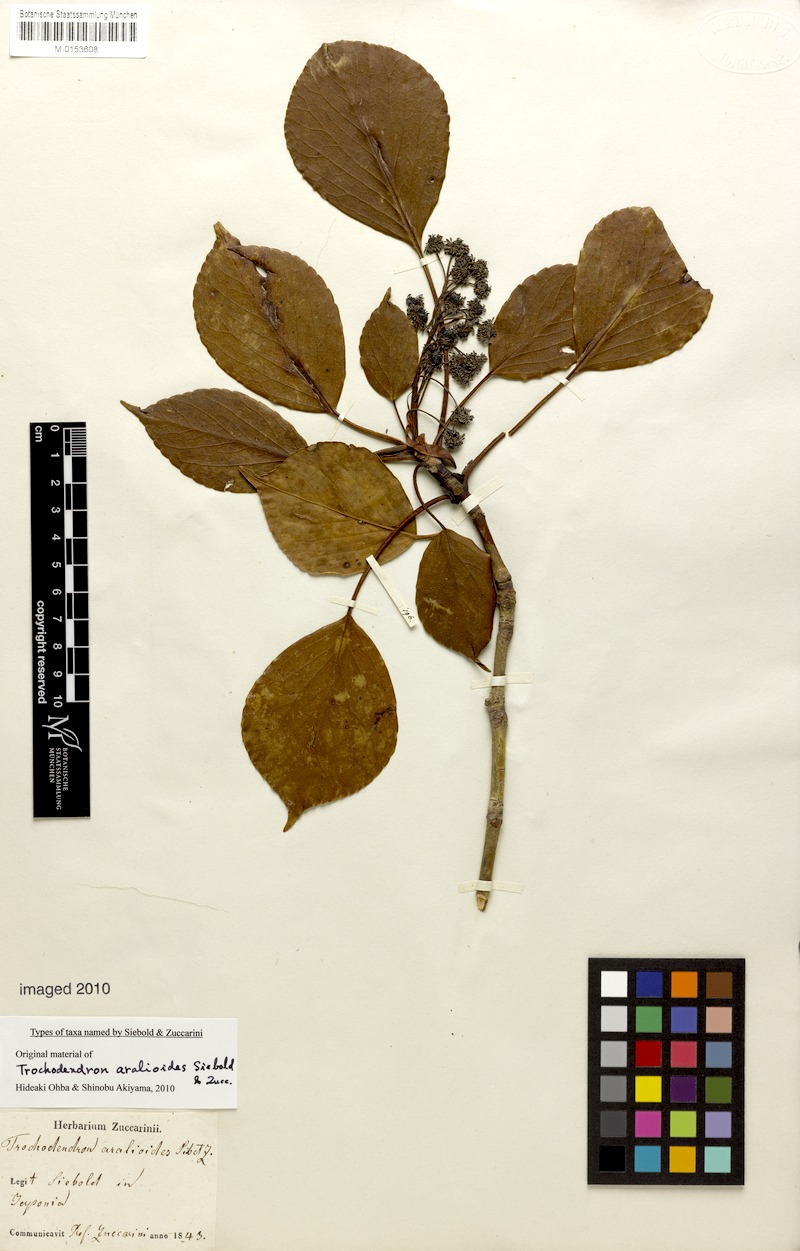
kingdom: Plantae
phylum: Tracheophyta
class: Magnoliopsida
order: Trochodendrales
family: Trochodendraceae
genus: Trochodendron
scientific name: Trochodendron aralioides
